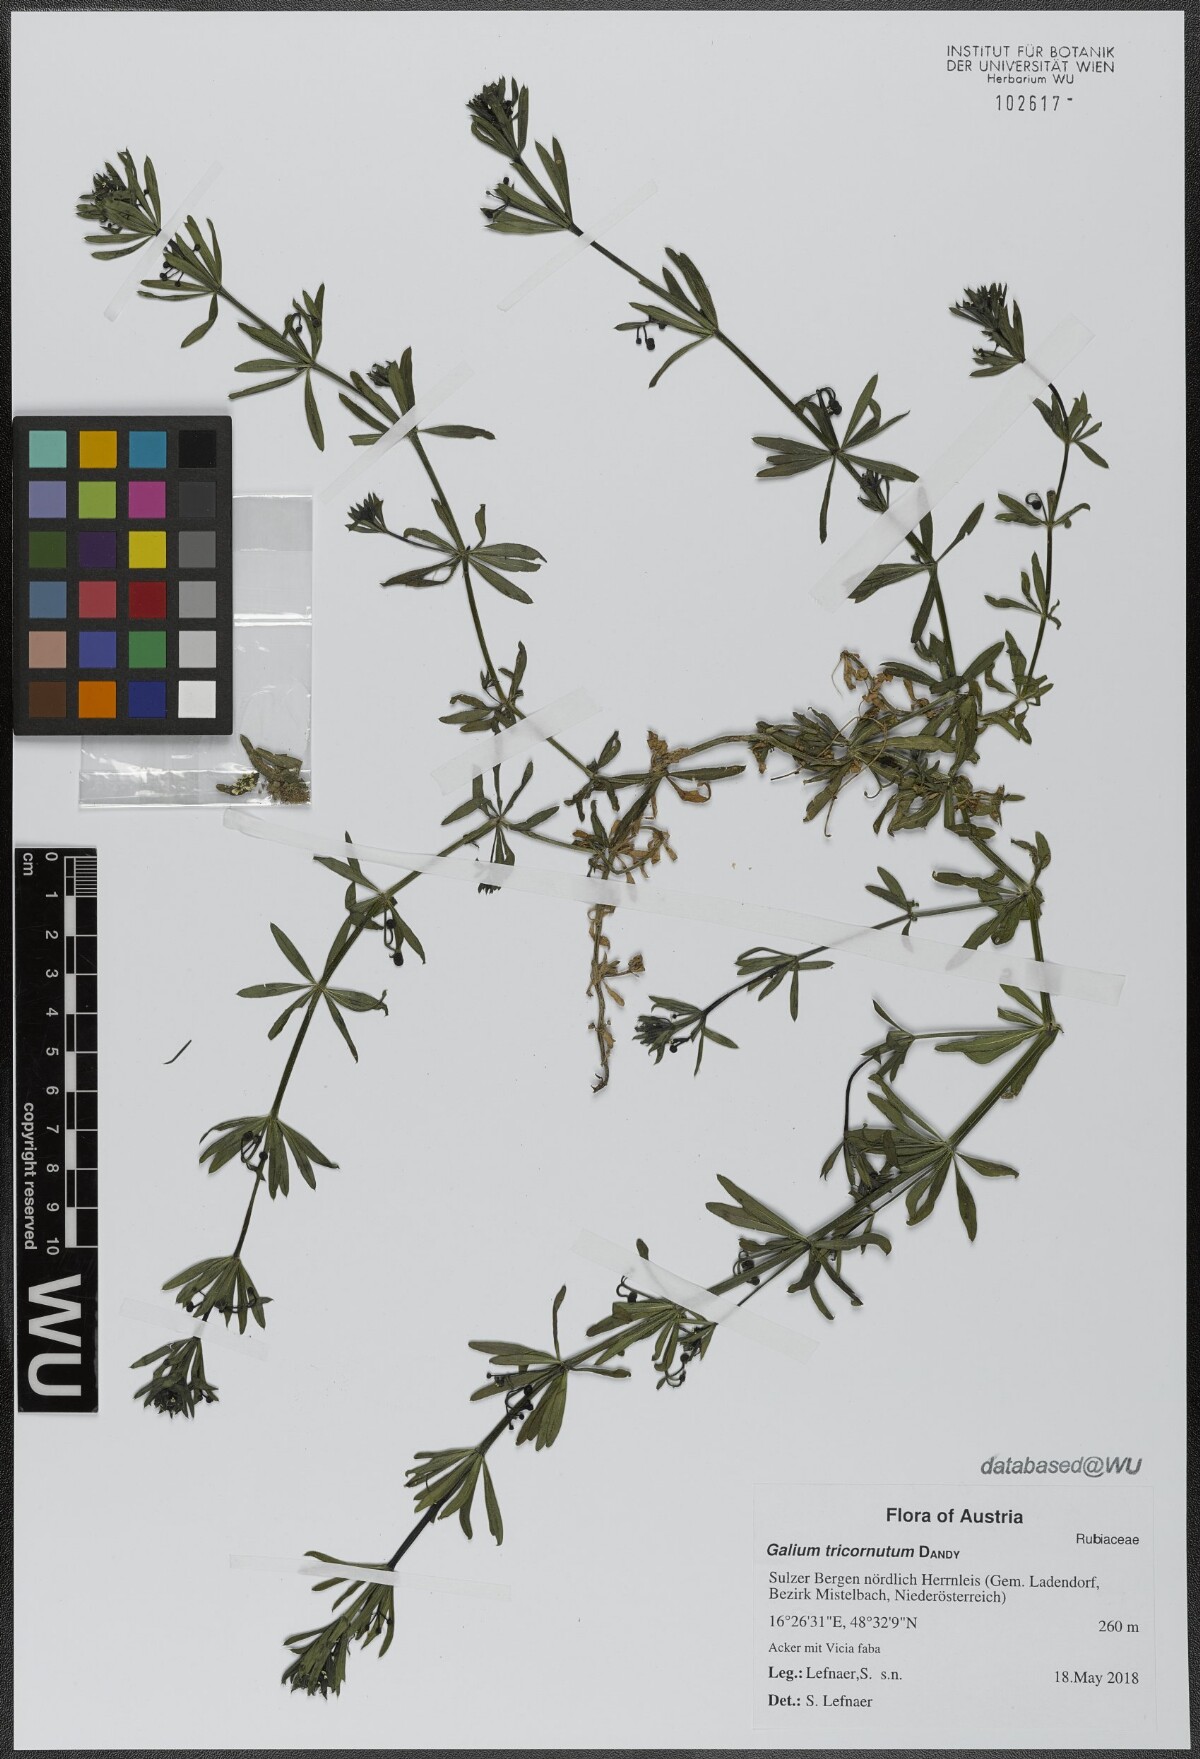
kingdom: Plantae
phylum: Tracheophyta
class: Magnoliopsida
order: Gentianales
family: Rubiaceae
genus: Galium
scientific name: Galium tricornutum
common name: Corn cleavers
